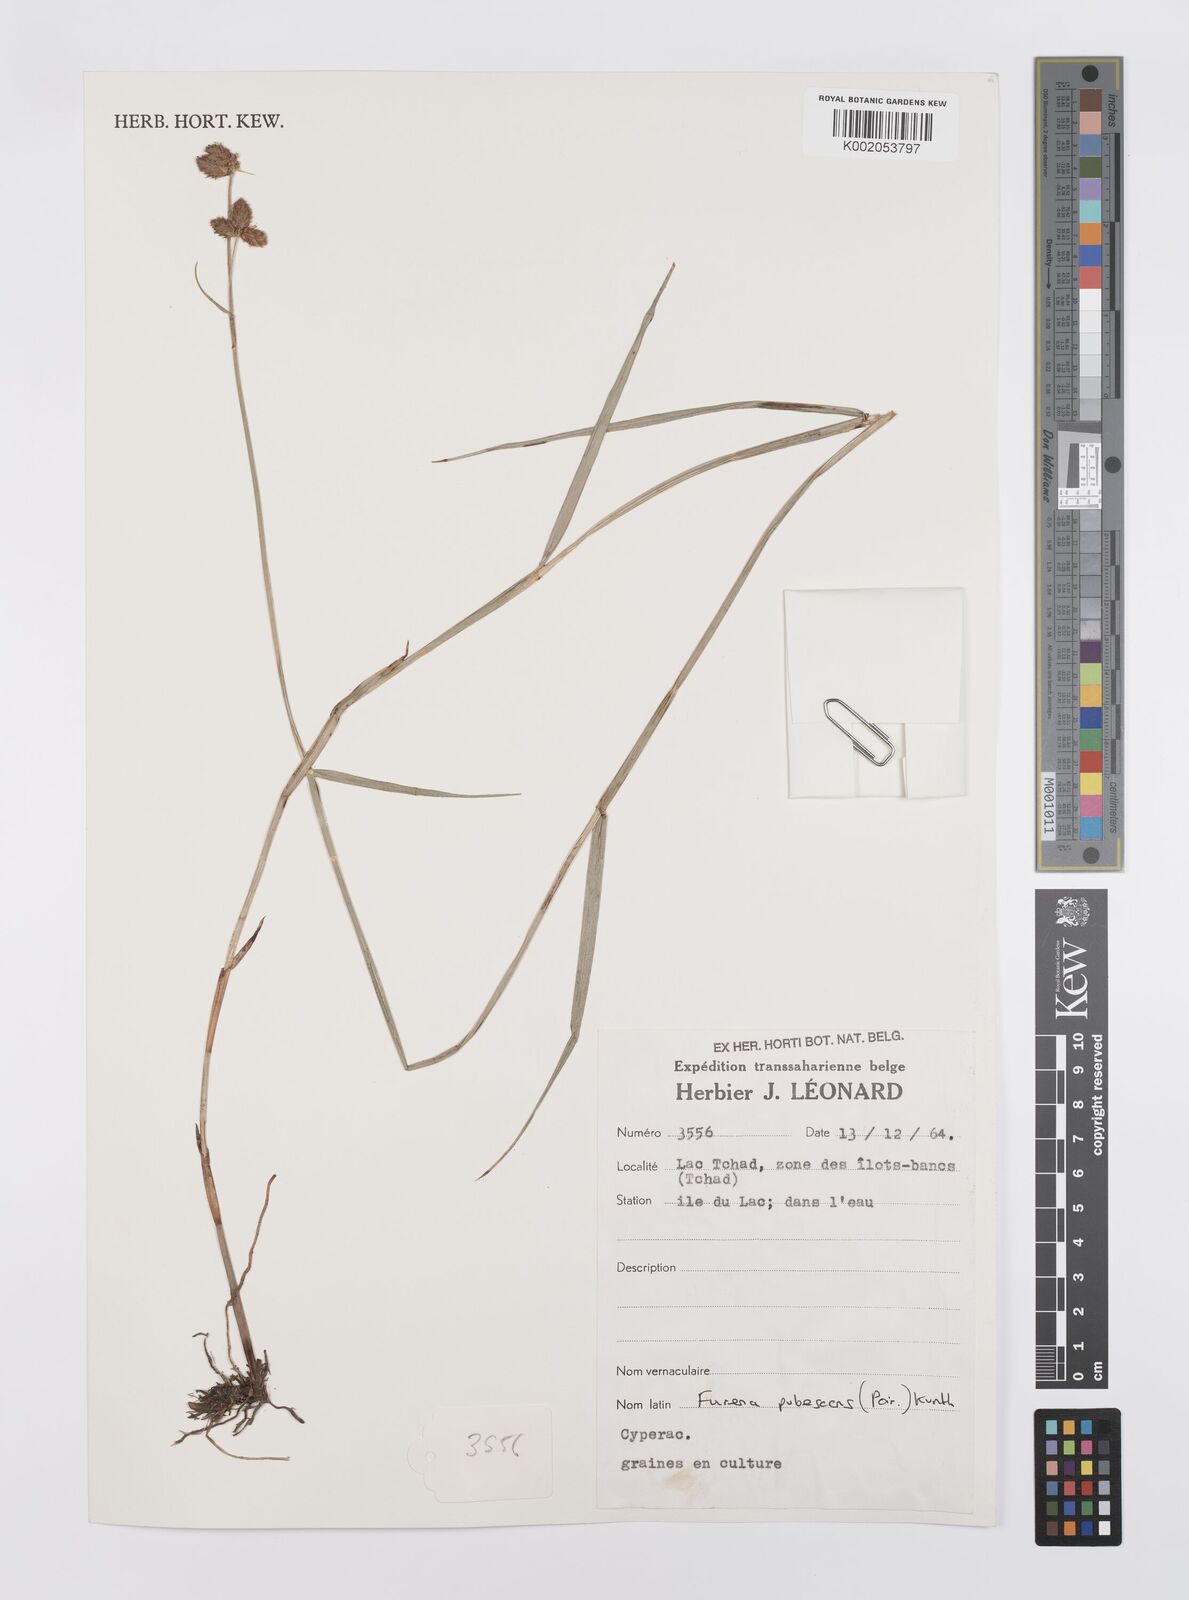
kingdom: Plantae
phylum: Tracheophyta
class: Liliopsida
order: Poales
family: Cyperaceae
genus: Fuirena
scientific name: Fuirena pubescens
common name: Hairy sedge
